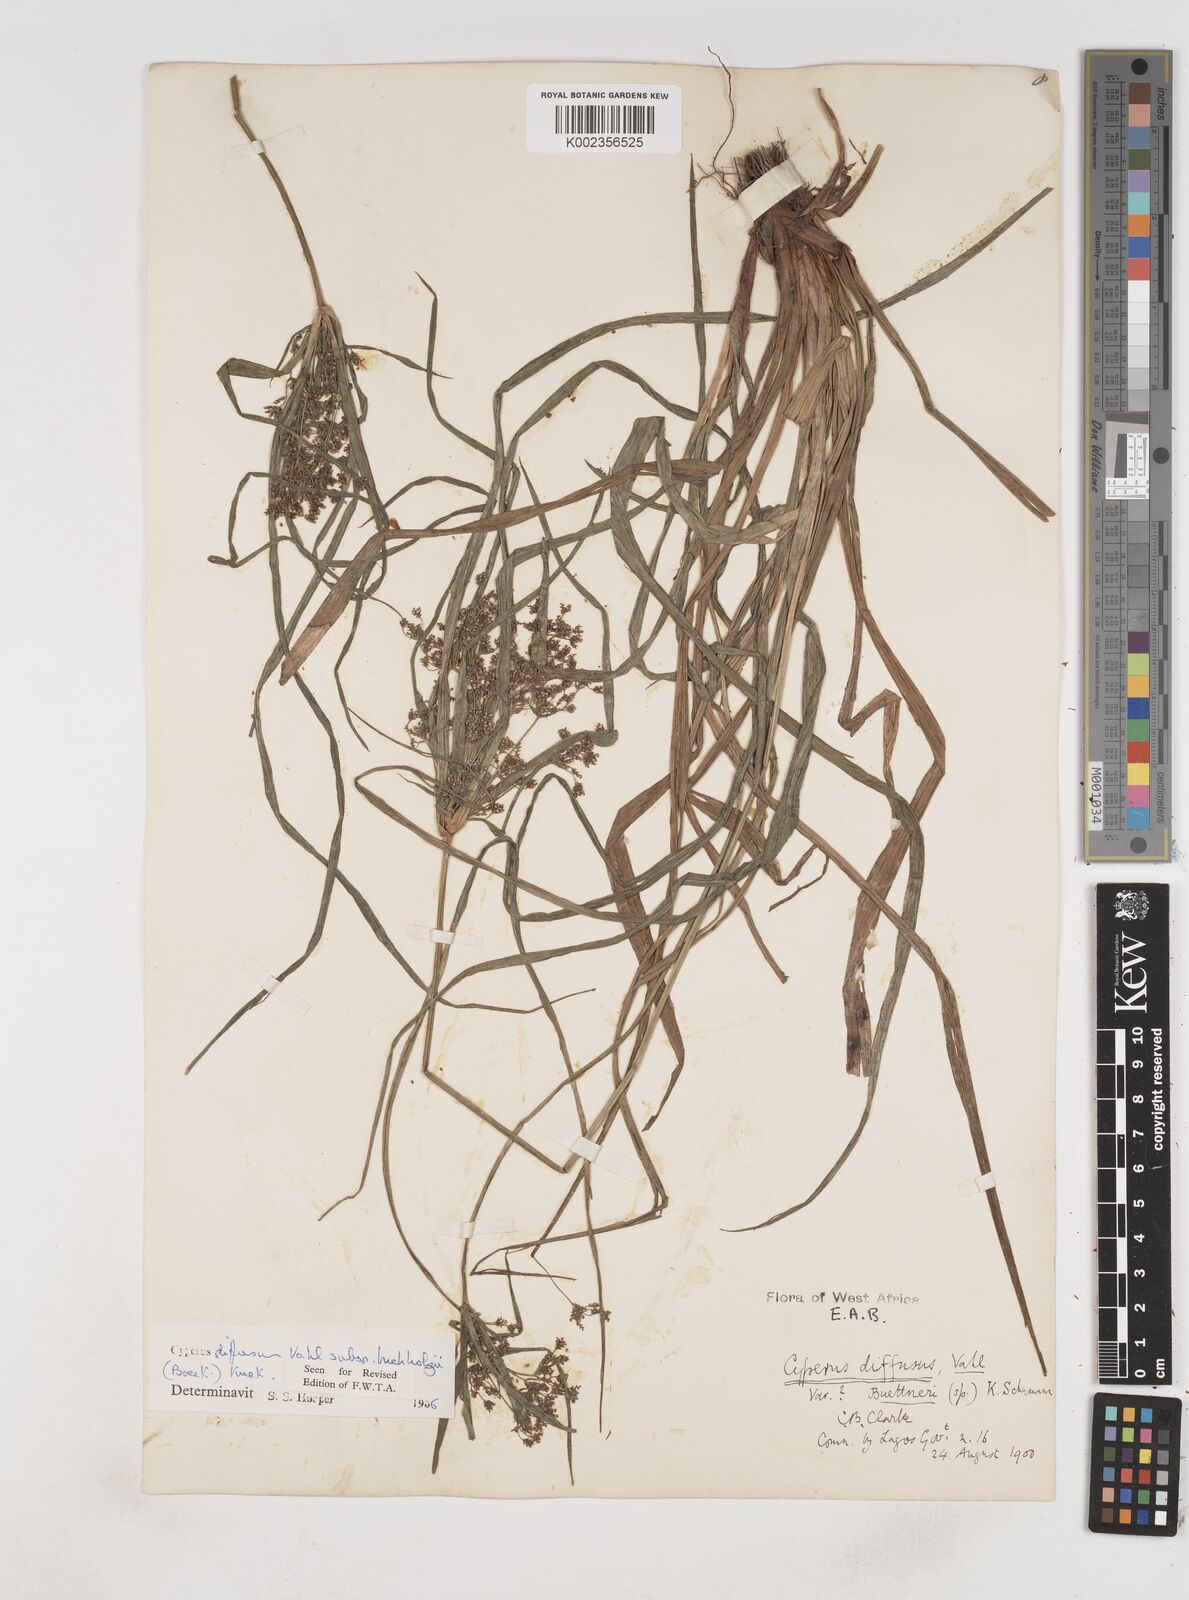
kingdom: Plantae
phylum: Tracheophyta
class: Liliopsida
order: Poales
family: Cyperaceae
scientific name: Cyperaceae
